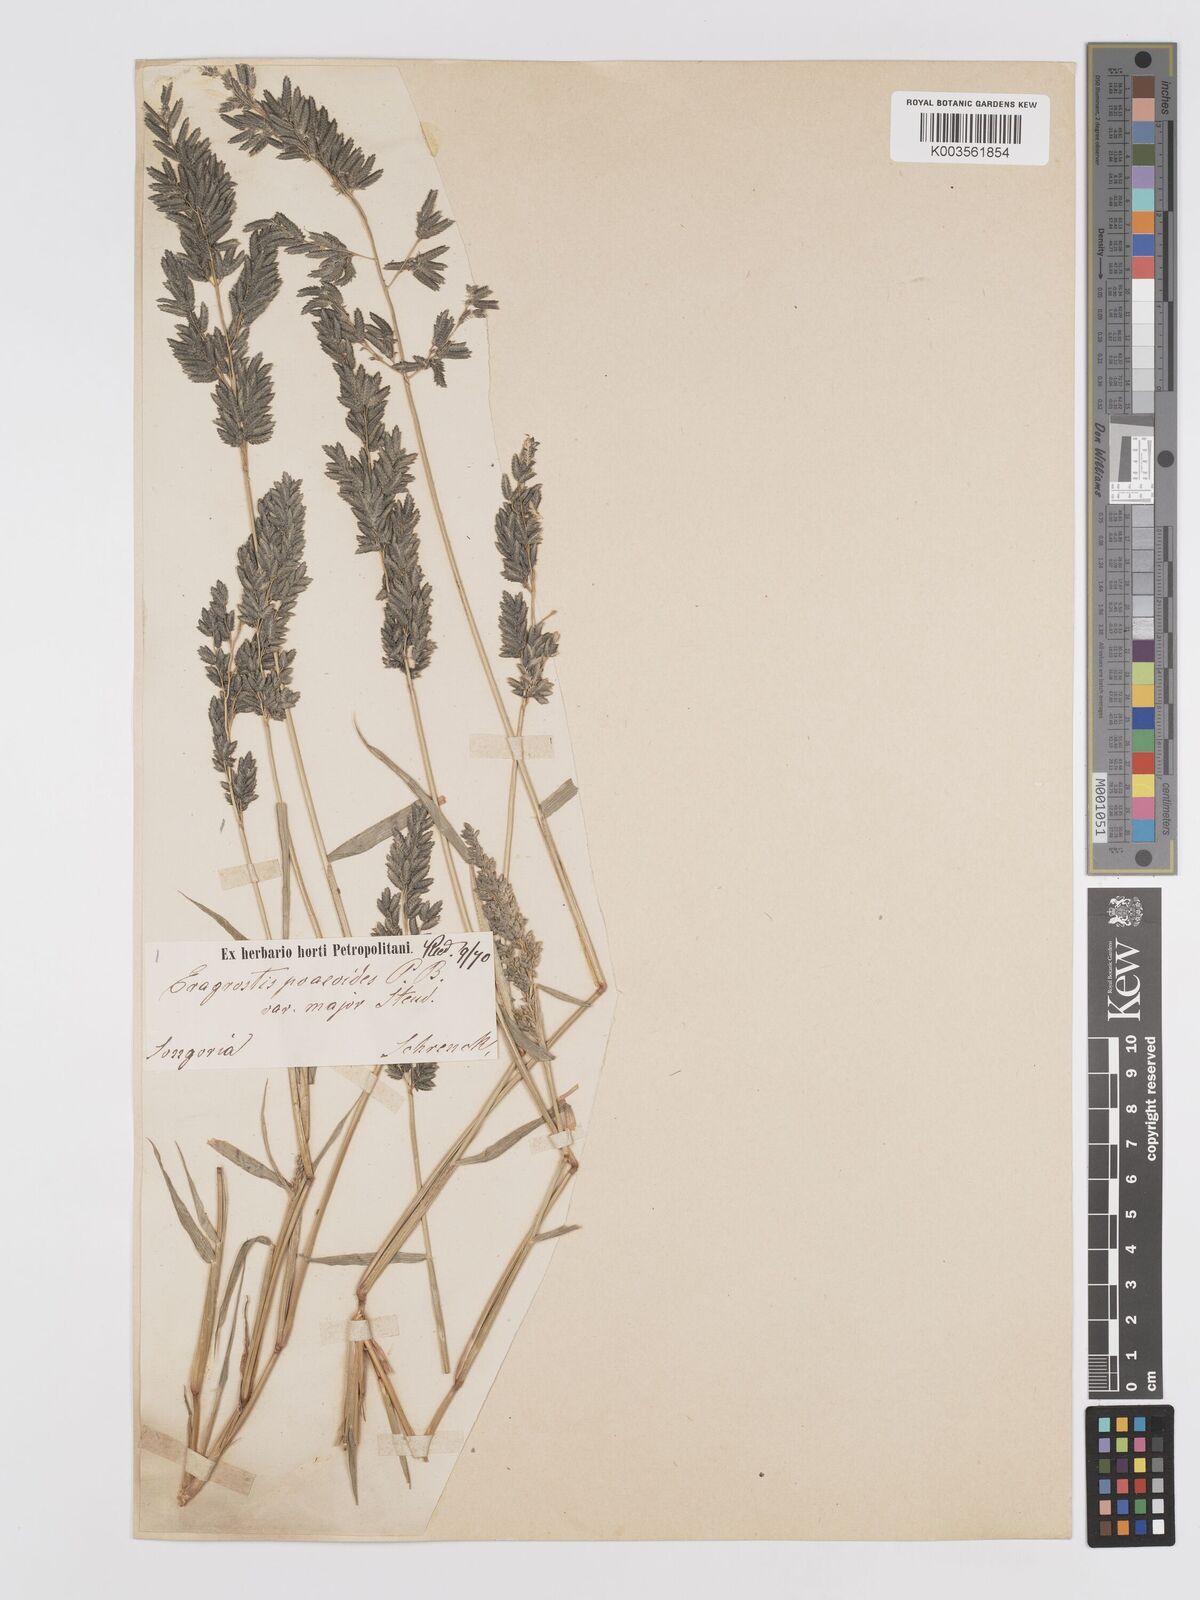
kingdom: Plantae
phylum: Tracheophyta
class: Liliopsida
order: Poales
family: Poaceae
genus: Eragrostis
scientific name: Eragrostis cilianensis
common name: Stinkgrass
